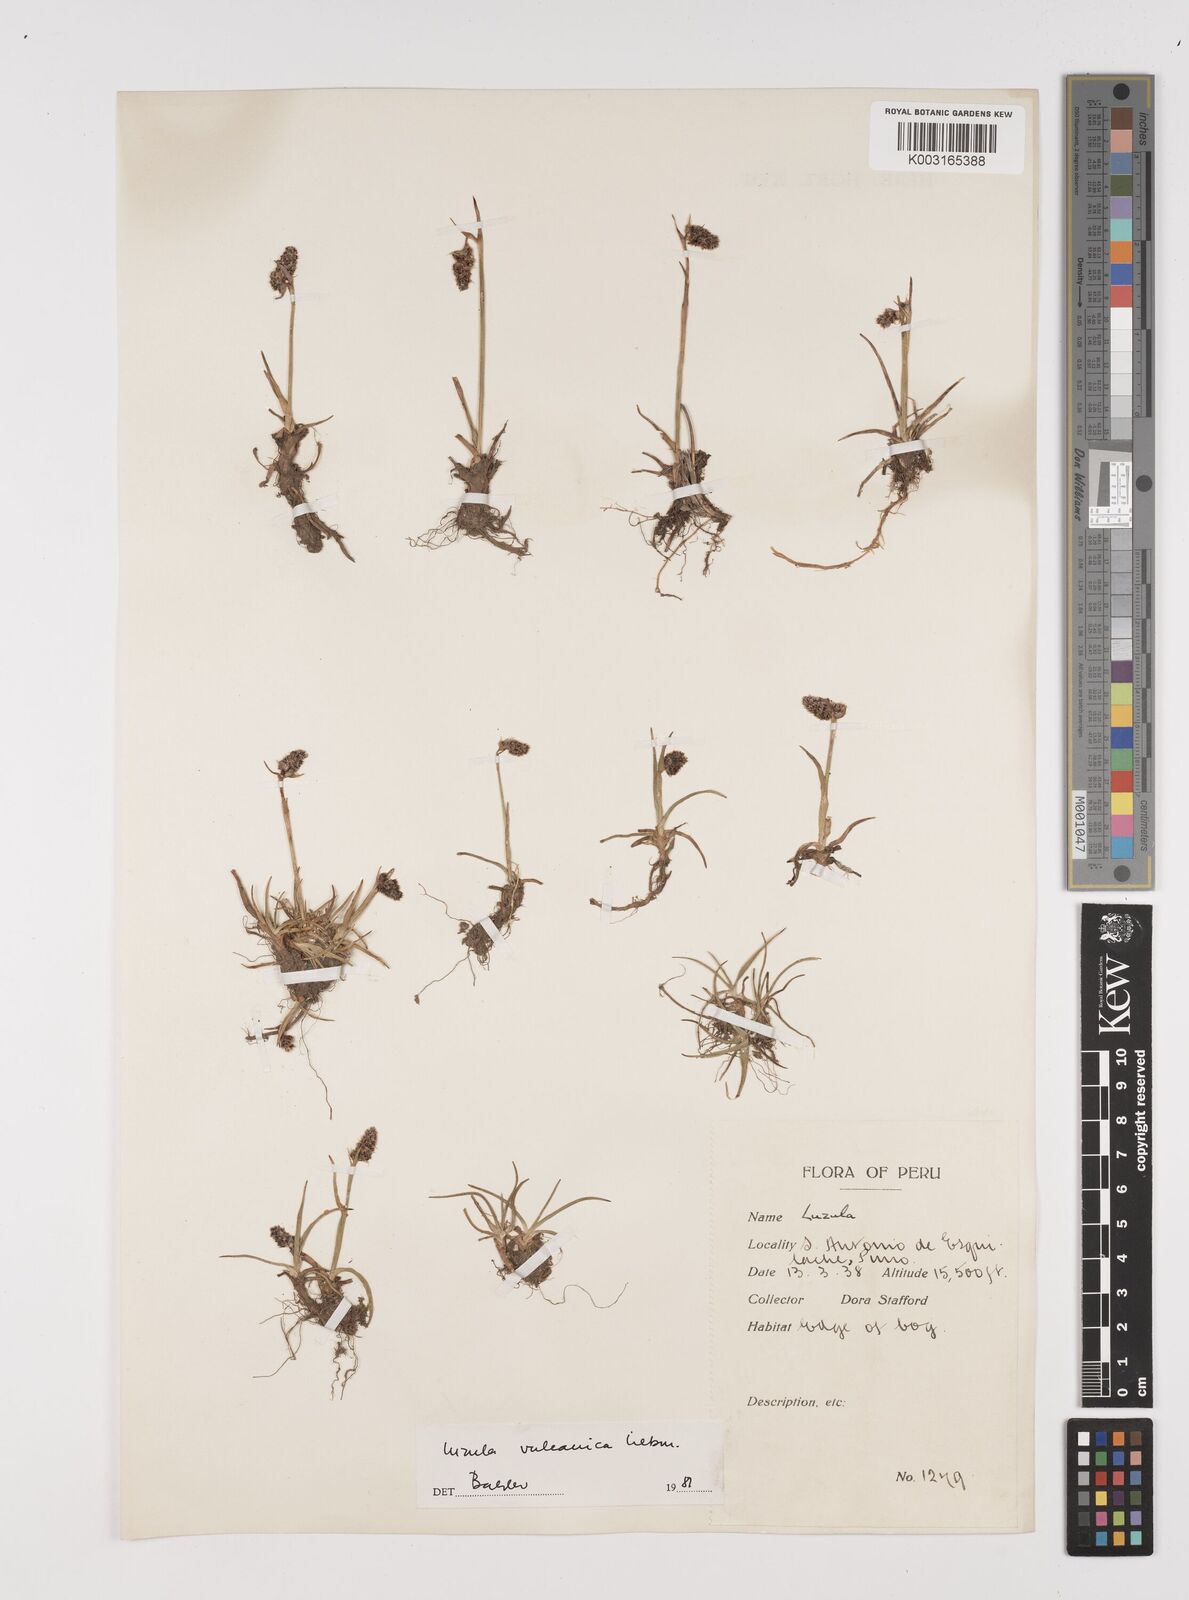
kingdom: Plantae
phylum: Tracheophyta
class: Liliopsida
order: Poales
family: Juncaceae
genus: Luzula
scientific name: Luzula vulcanica
